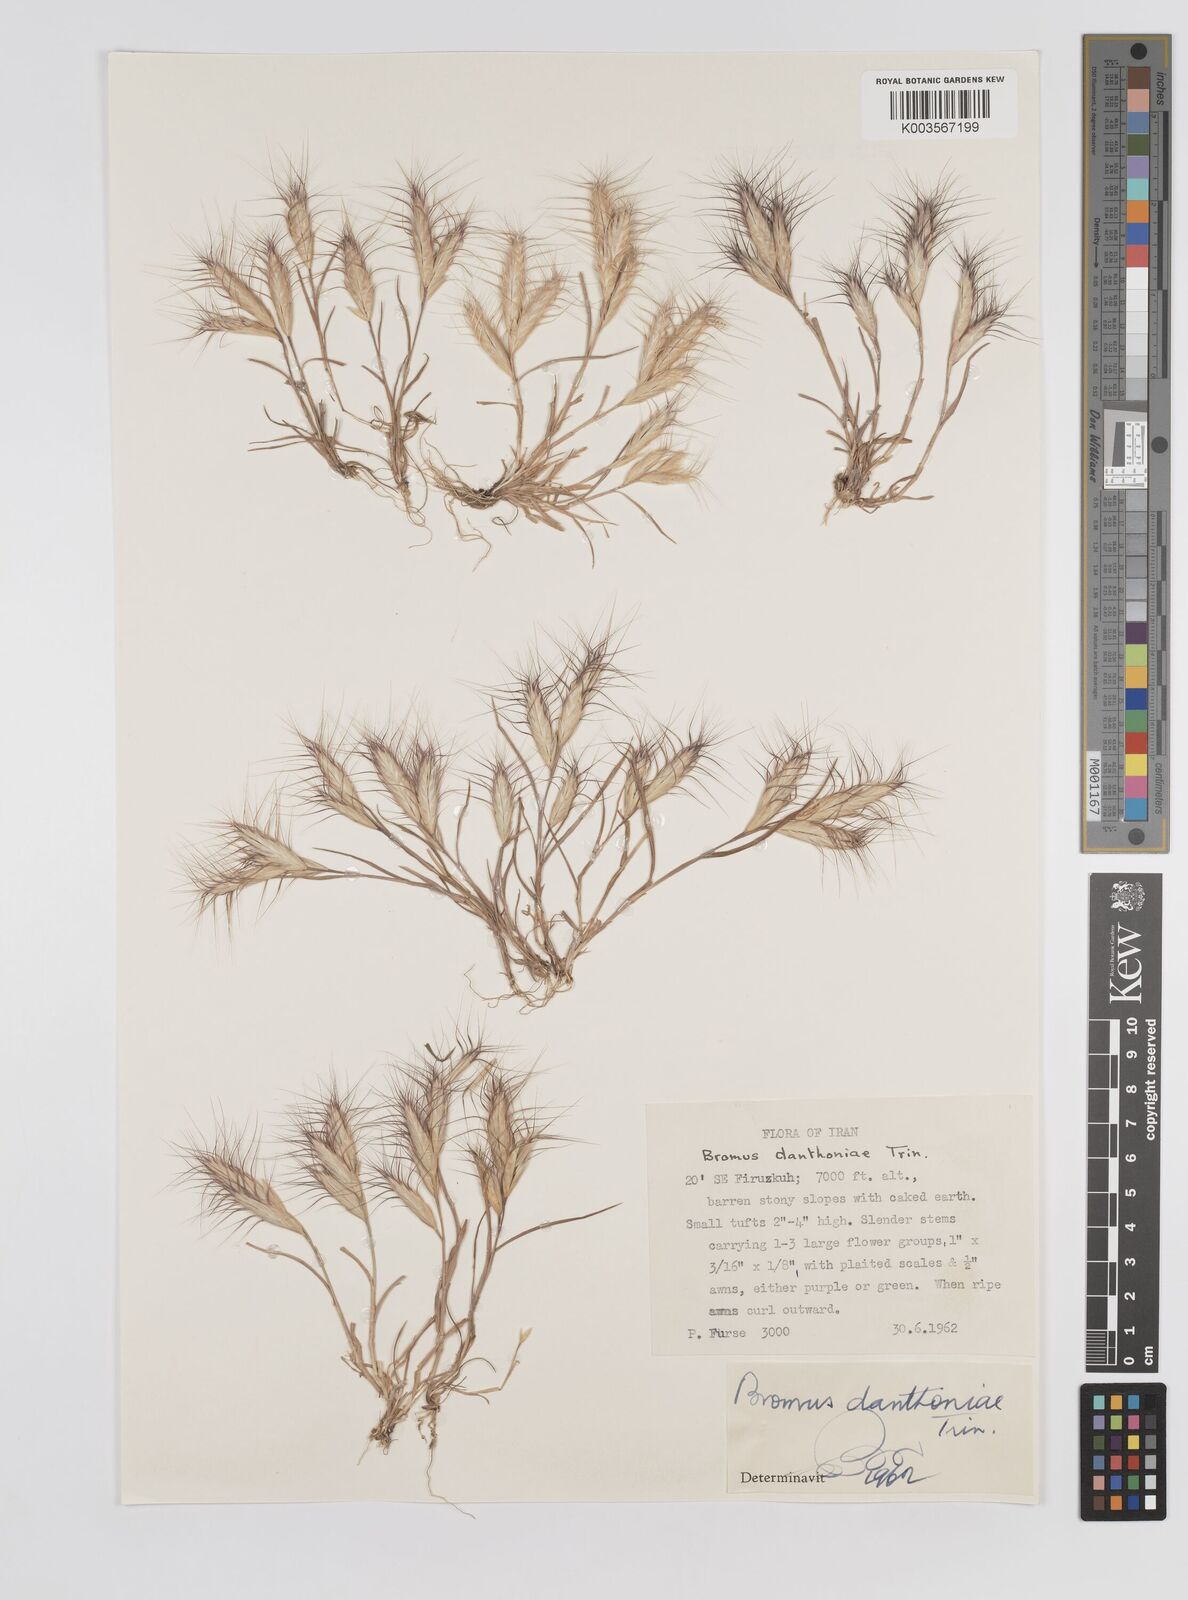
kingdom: Plantae
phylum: Tracheophyta
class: Liliopsida
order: Poales
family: Poaceae
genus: Bromus
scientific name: Bromus danthoniae
